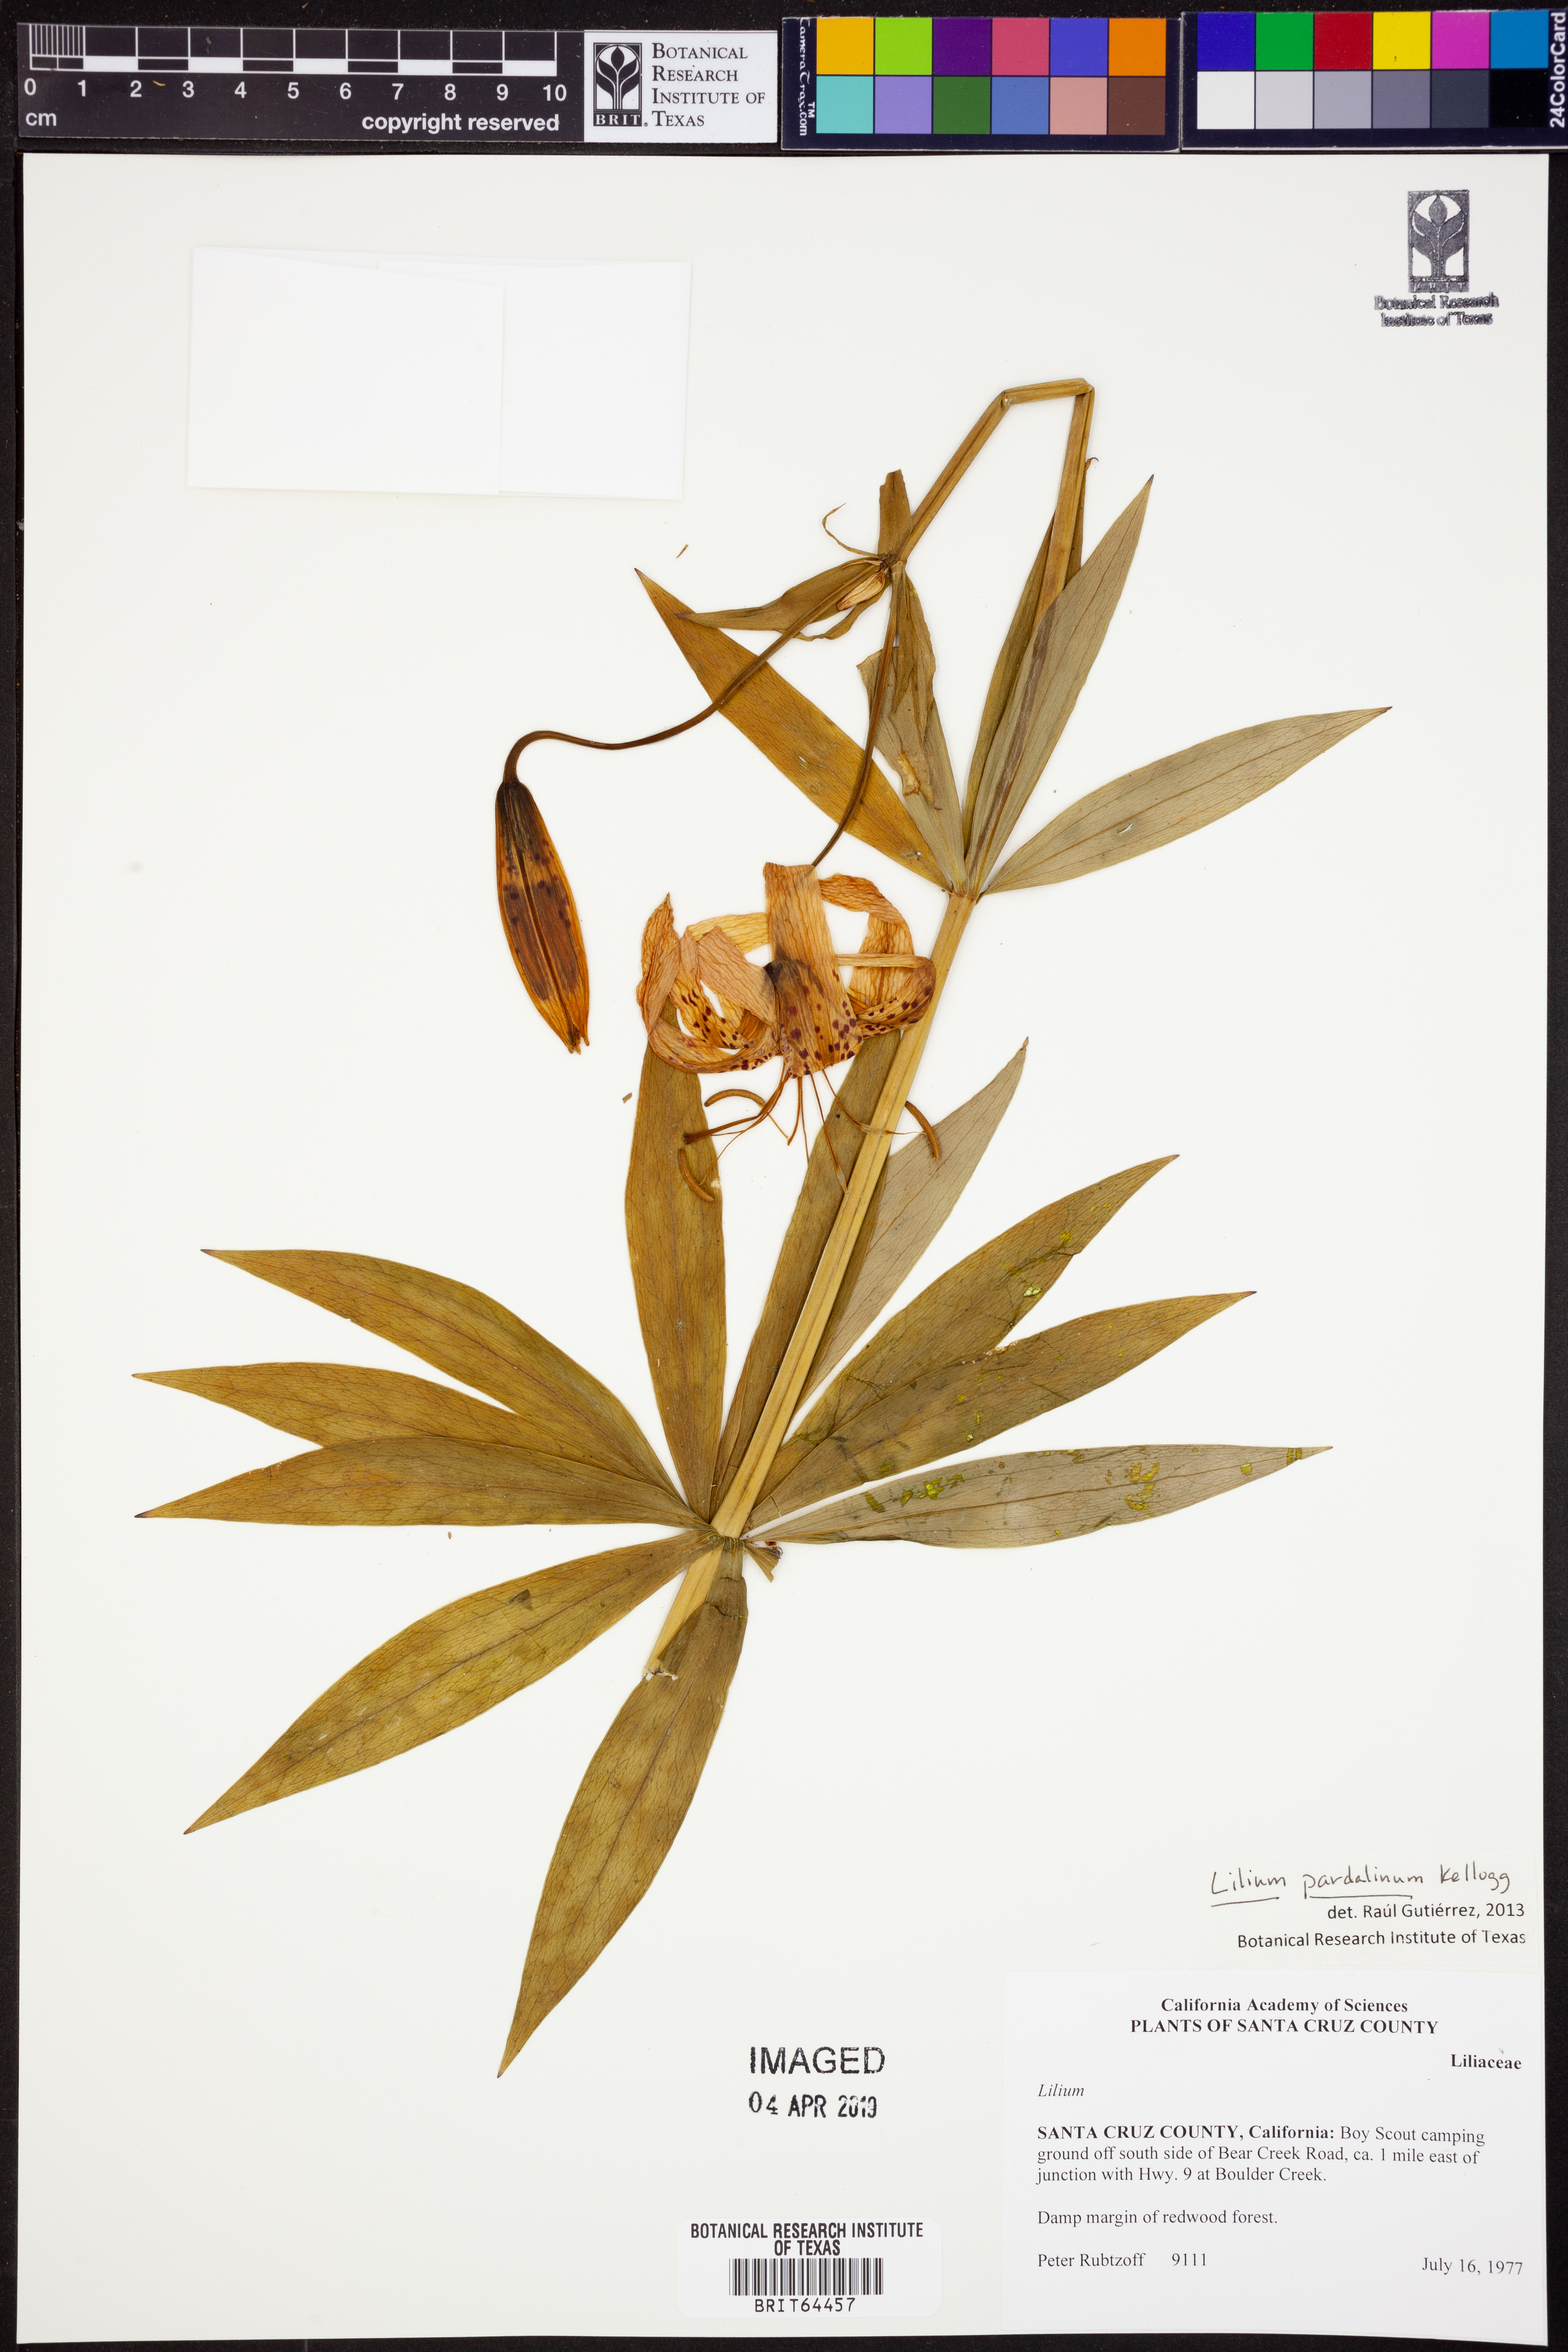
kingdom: Plantae
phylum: Tracheophyta
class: Liliopsida
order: Liliales
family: Liliaceae
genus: Lilium
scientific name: Lilium pardalinum
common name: Panther lily
